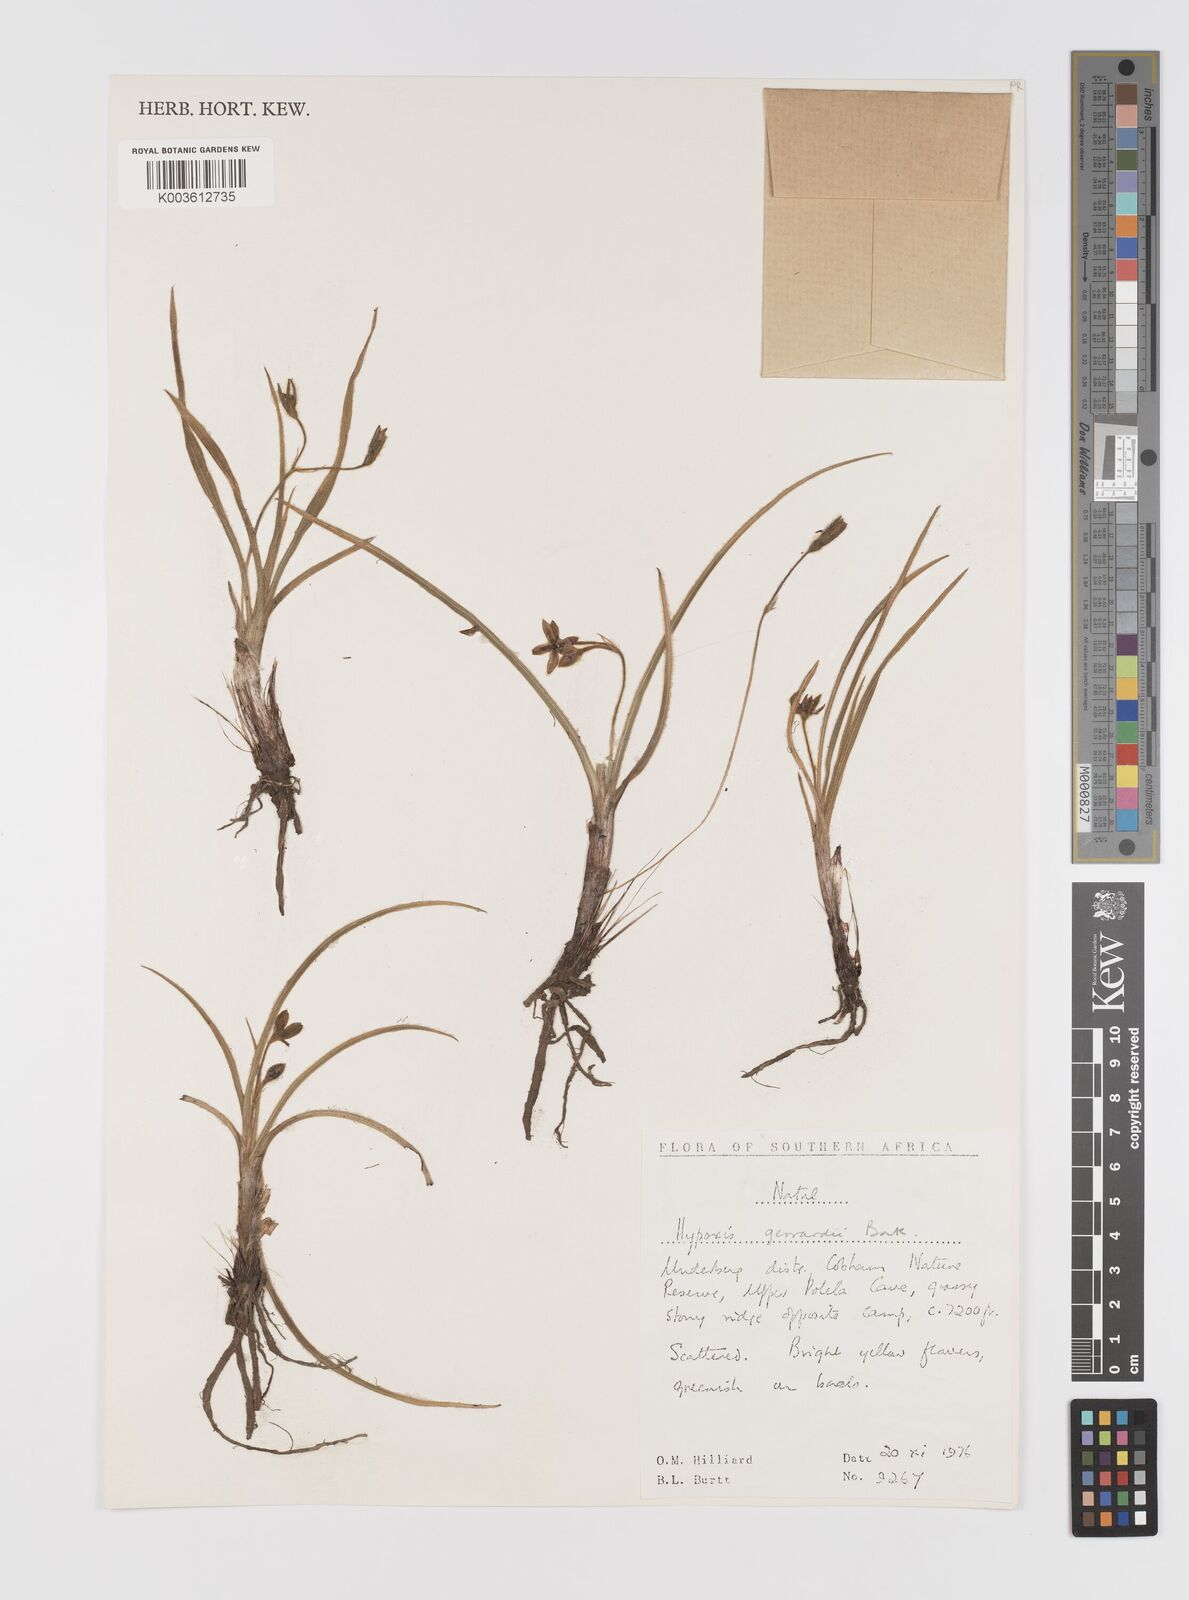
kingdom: Plantae
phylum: Tracheophyta
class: Liliopsida
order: Asparagales
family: Hypoxidaceae
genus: Hypoxis
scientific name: Hypoxis gerrardii
